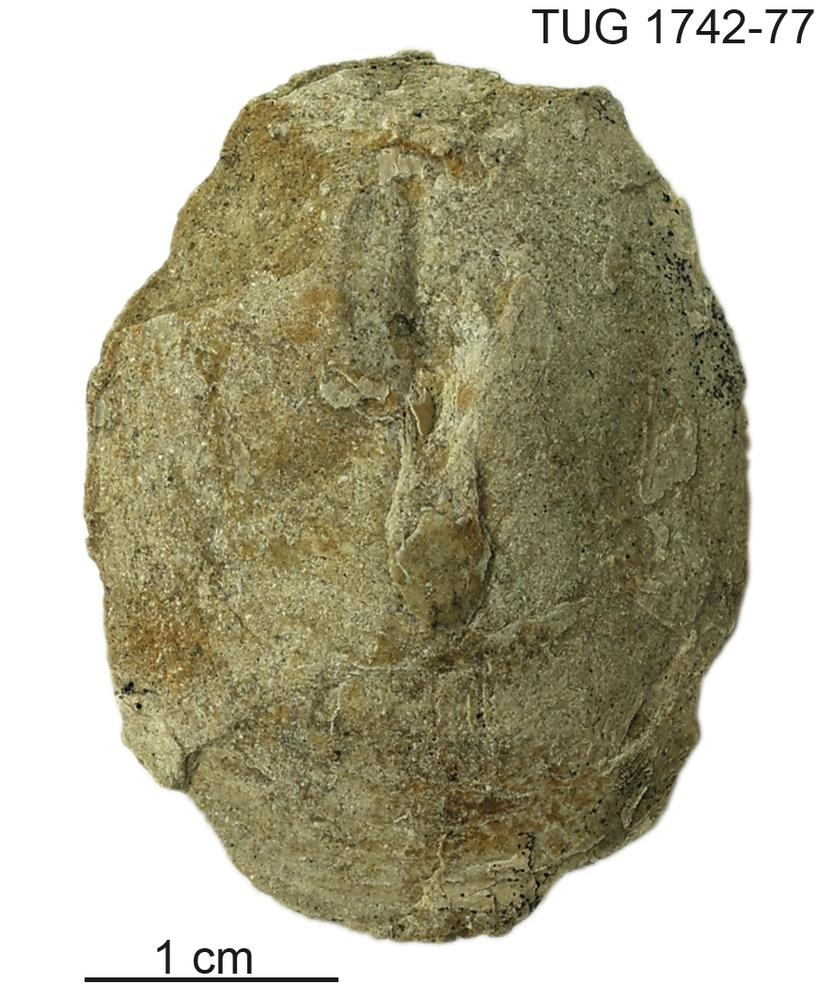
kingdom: Animalia
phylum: Brachiopoda
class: Lingulata
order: Lingulida
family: Pseudolingulidae
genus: Pseudolingula
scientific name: Pseudolingula
